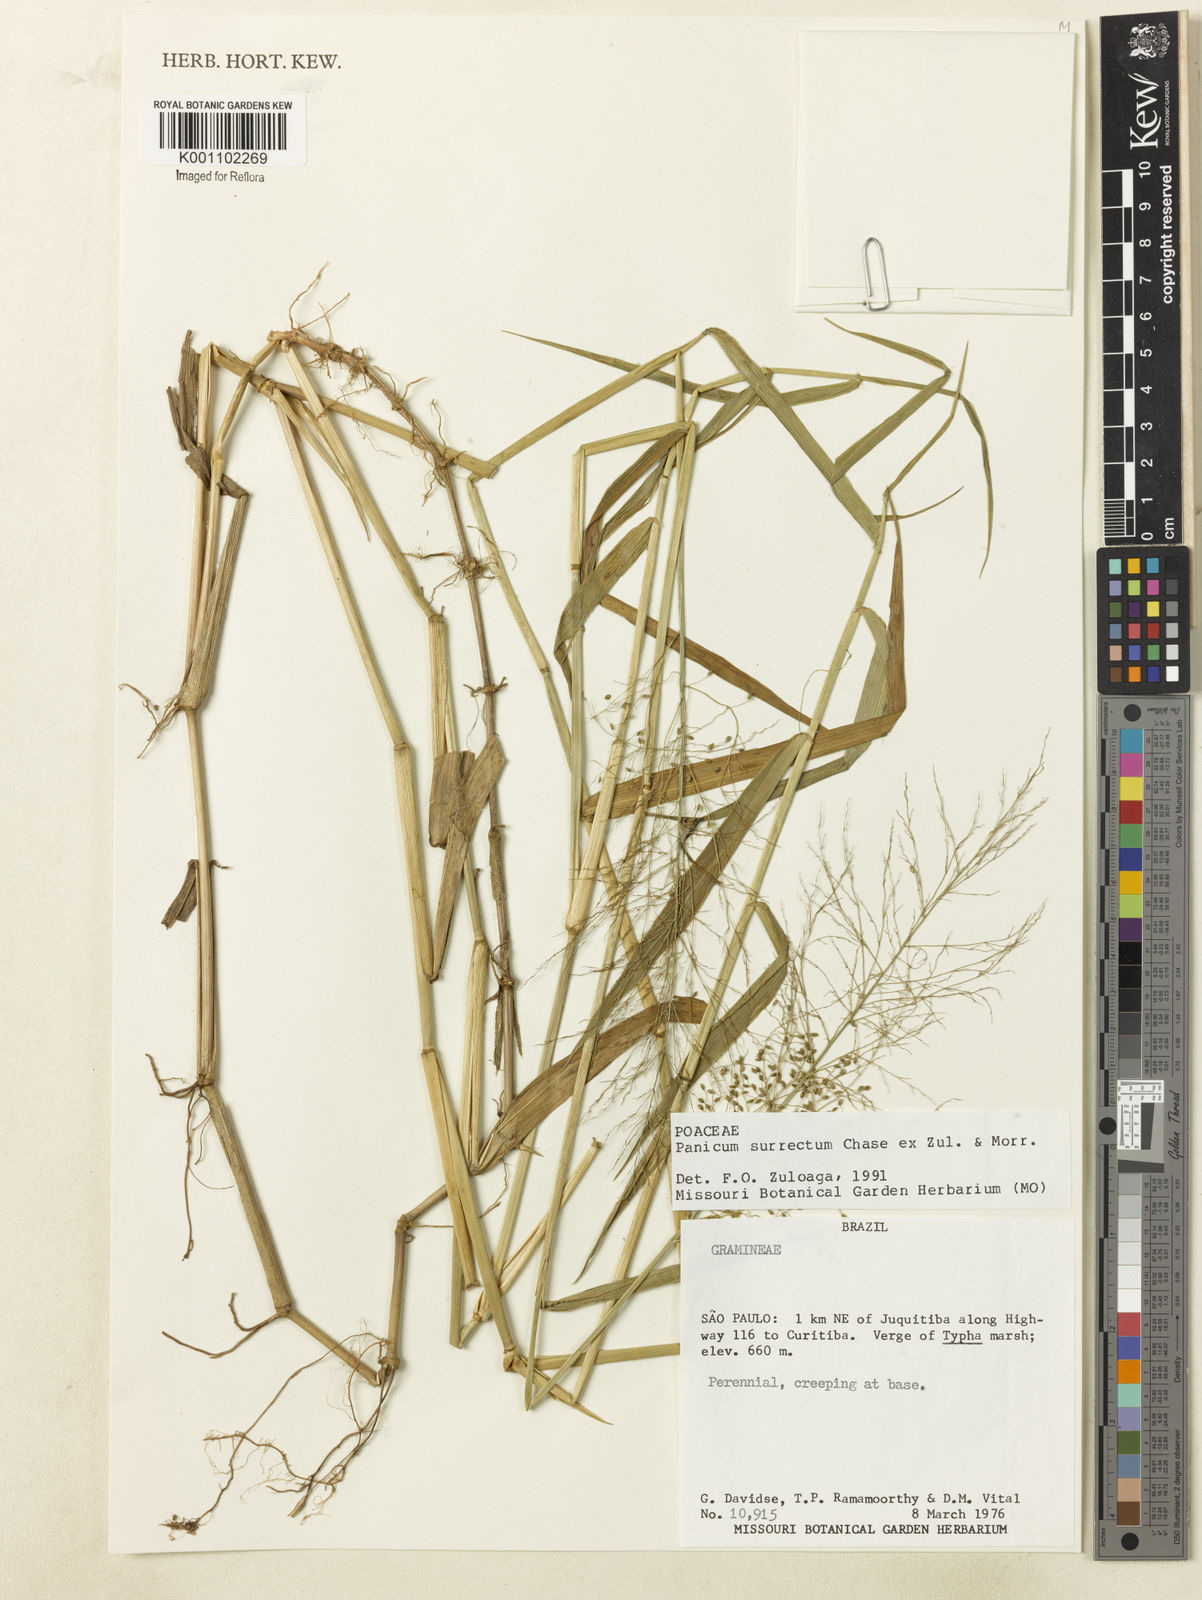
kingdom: Plantae
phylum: Tracheophyta
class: Liliopsida
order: Poales
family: Poaceae
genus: Dichanthelium
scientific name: Dichanthelium surrectum
